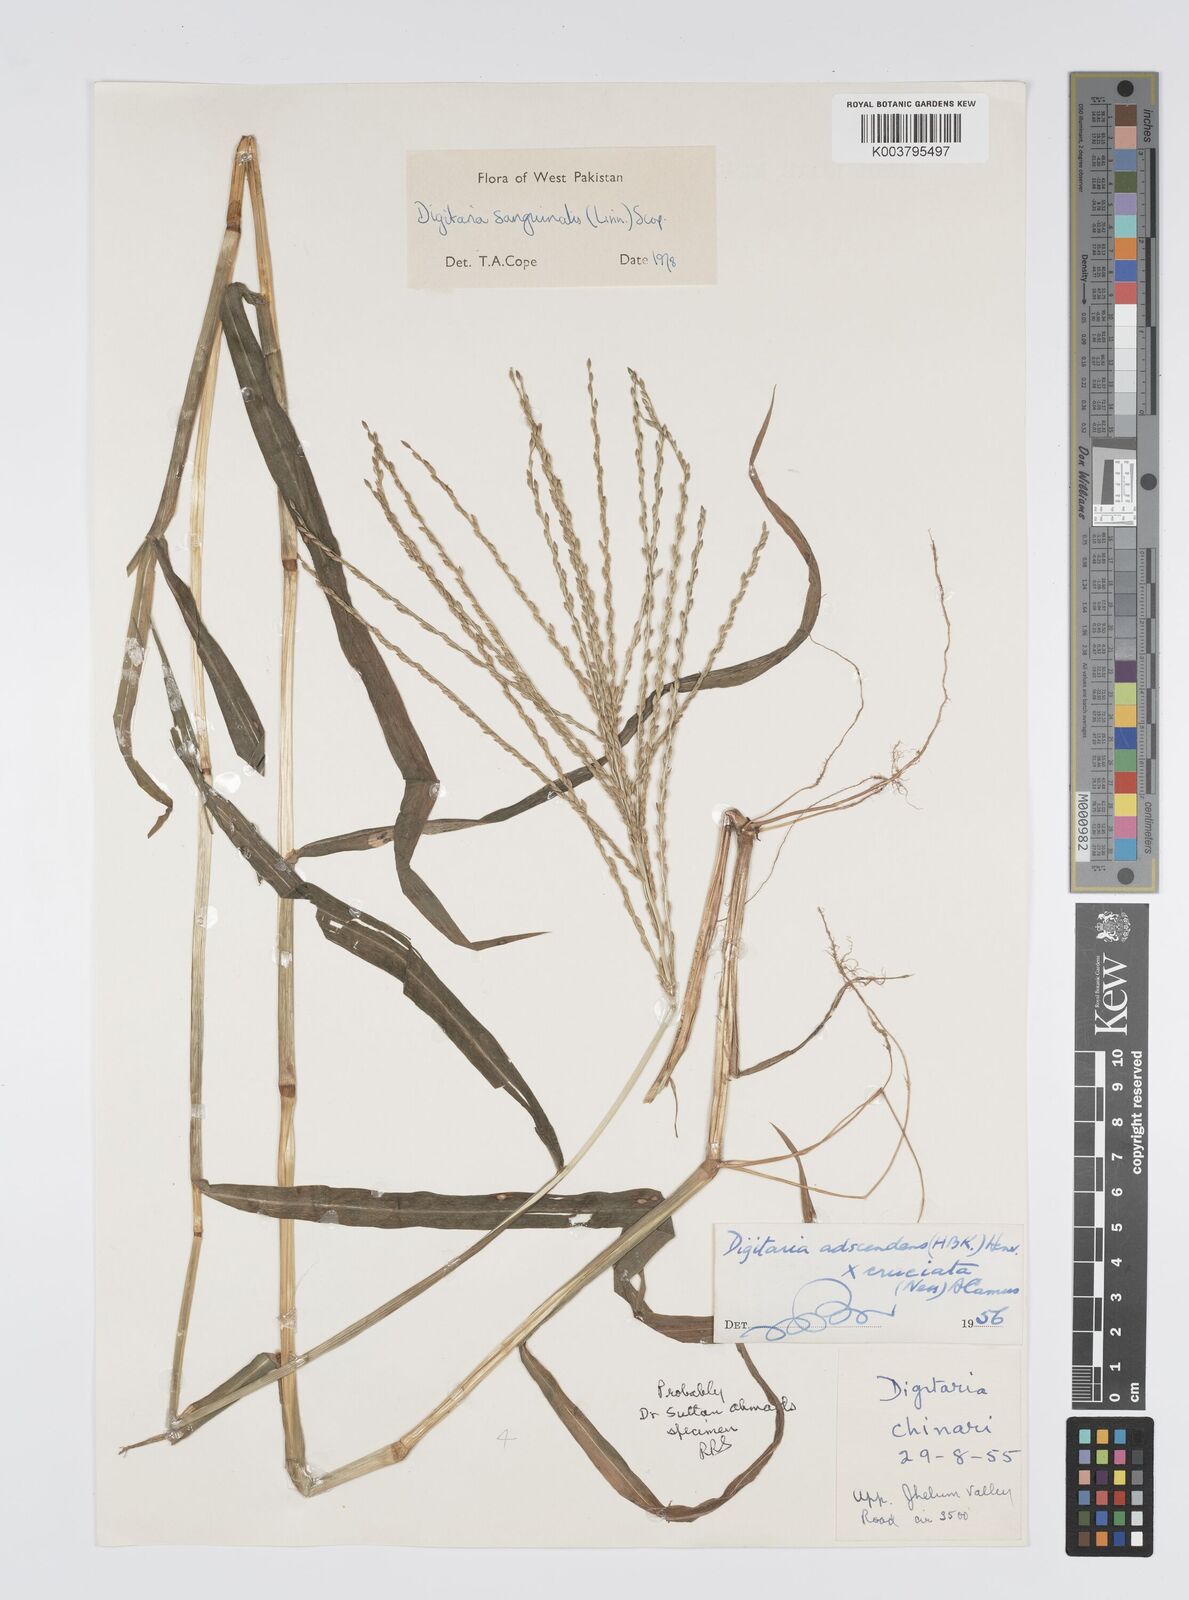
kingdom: Plantae
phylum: Tracheophyta
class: Liliopsida
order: Poales
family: Poaceae
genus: Digitaria
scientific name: Digitaria sanguinalis
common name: Hairy crabgrass
